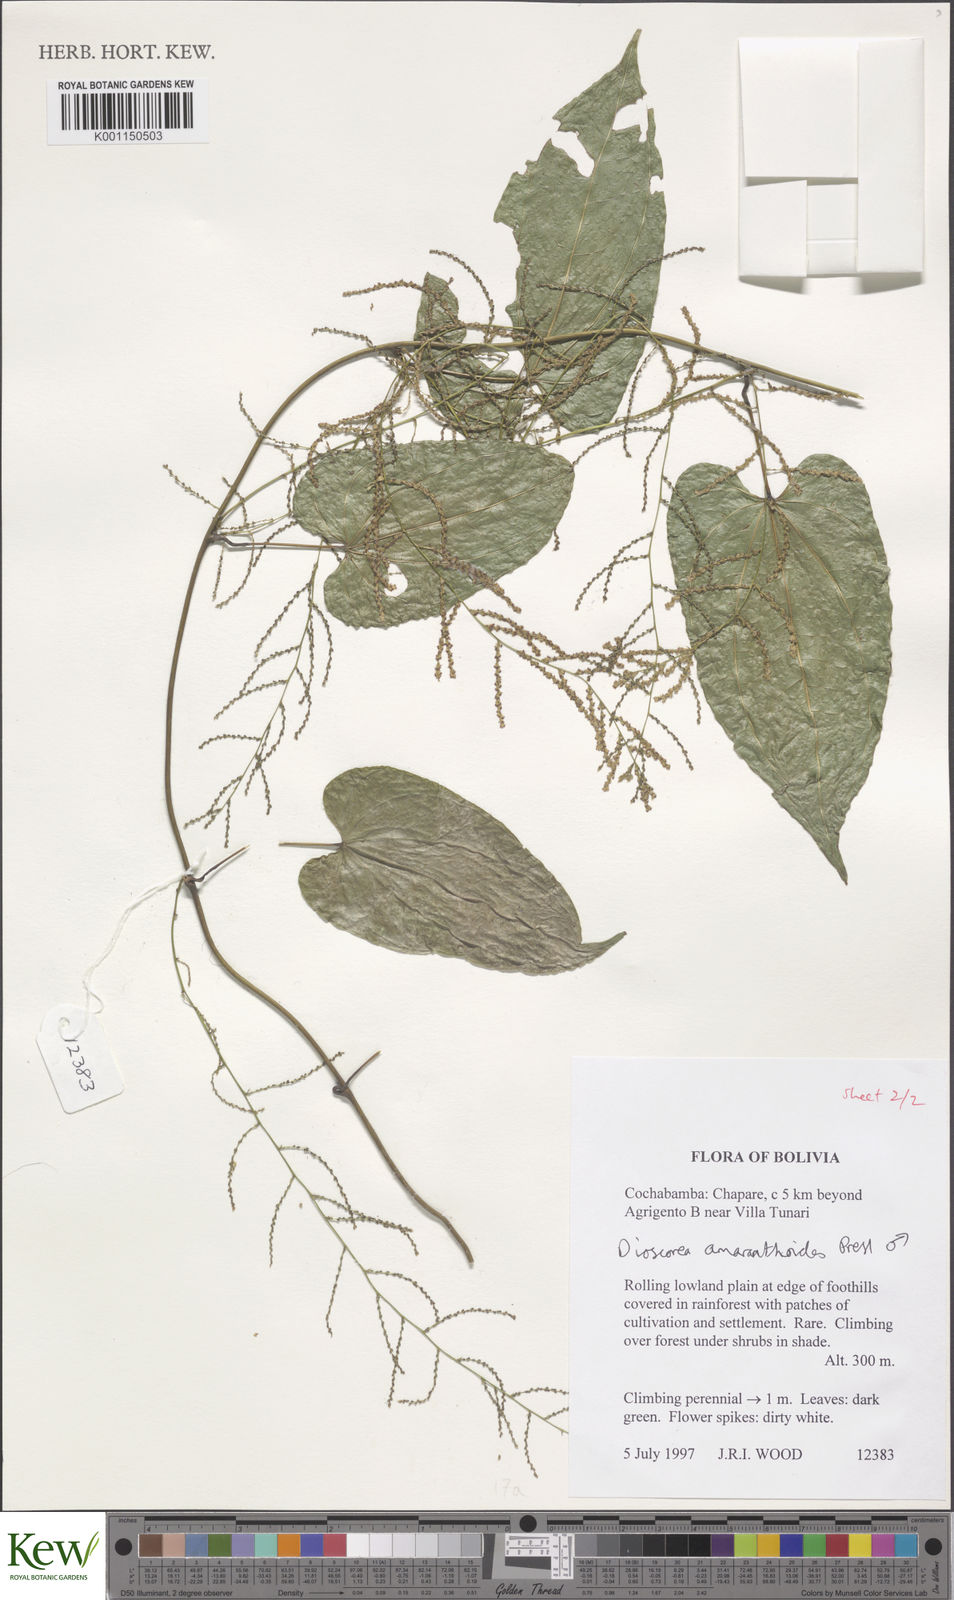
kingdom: Plantae
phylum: Tracheophyta
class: Liliopsida
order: Dioscoreales
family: Dioscoreaceae
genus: Dioscorea
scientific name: Dioscorea amaranthoides
